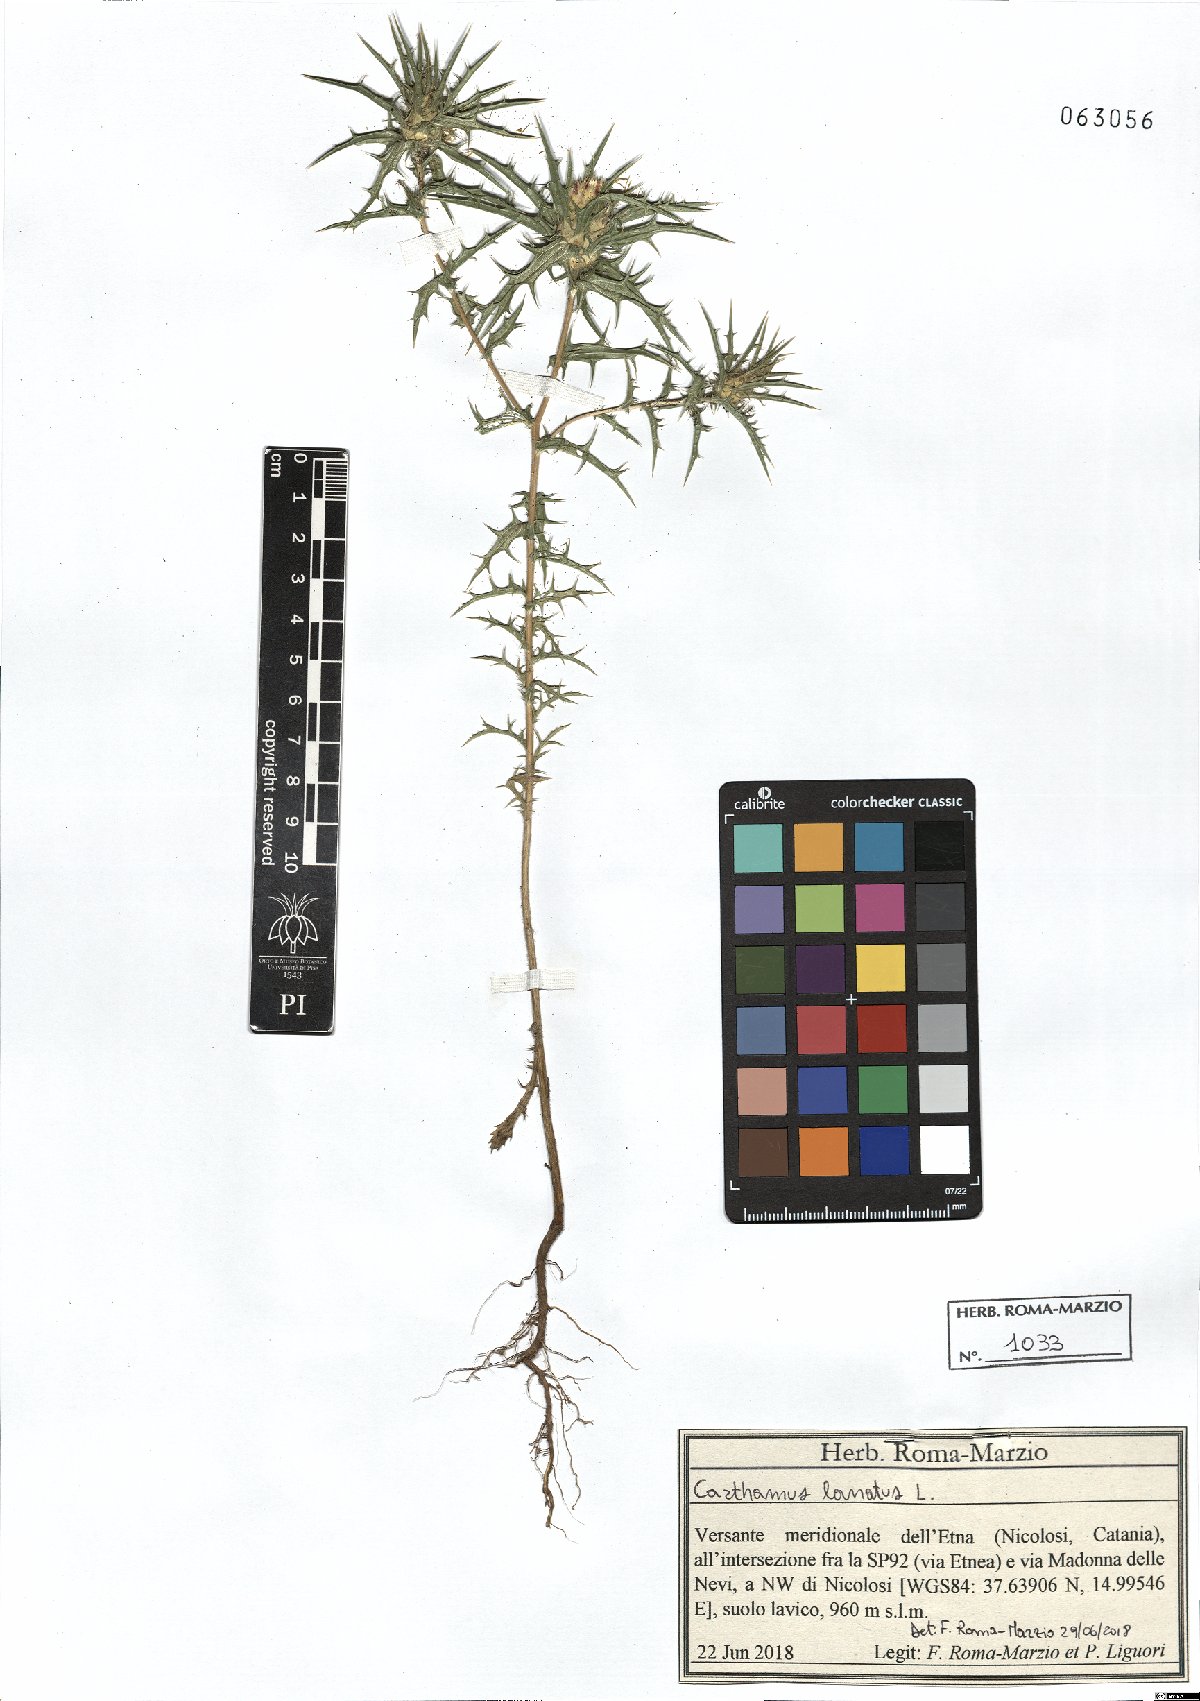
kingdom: Plantae
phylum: Tracheophyta
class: Magnoliopsida
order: Asterales
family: Asteraceae
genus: Carthamus
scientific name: Carthamus lanatus
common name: Downy safflower
